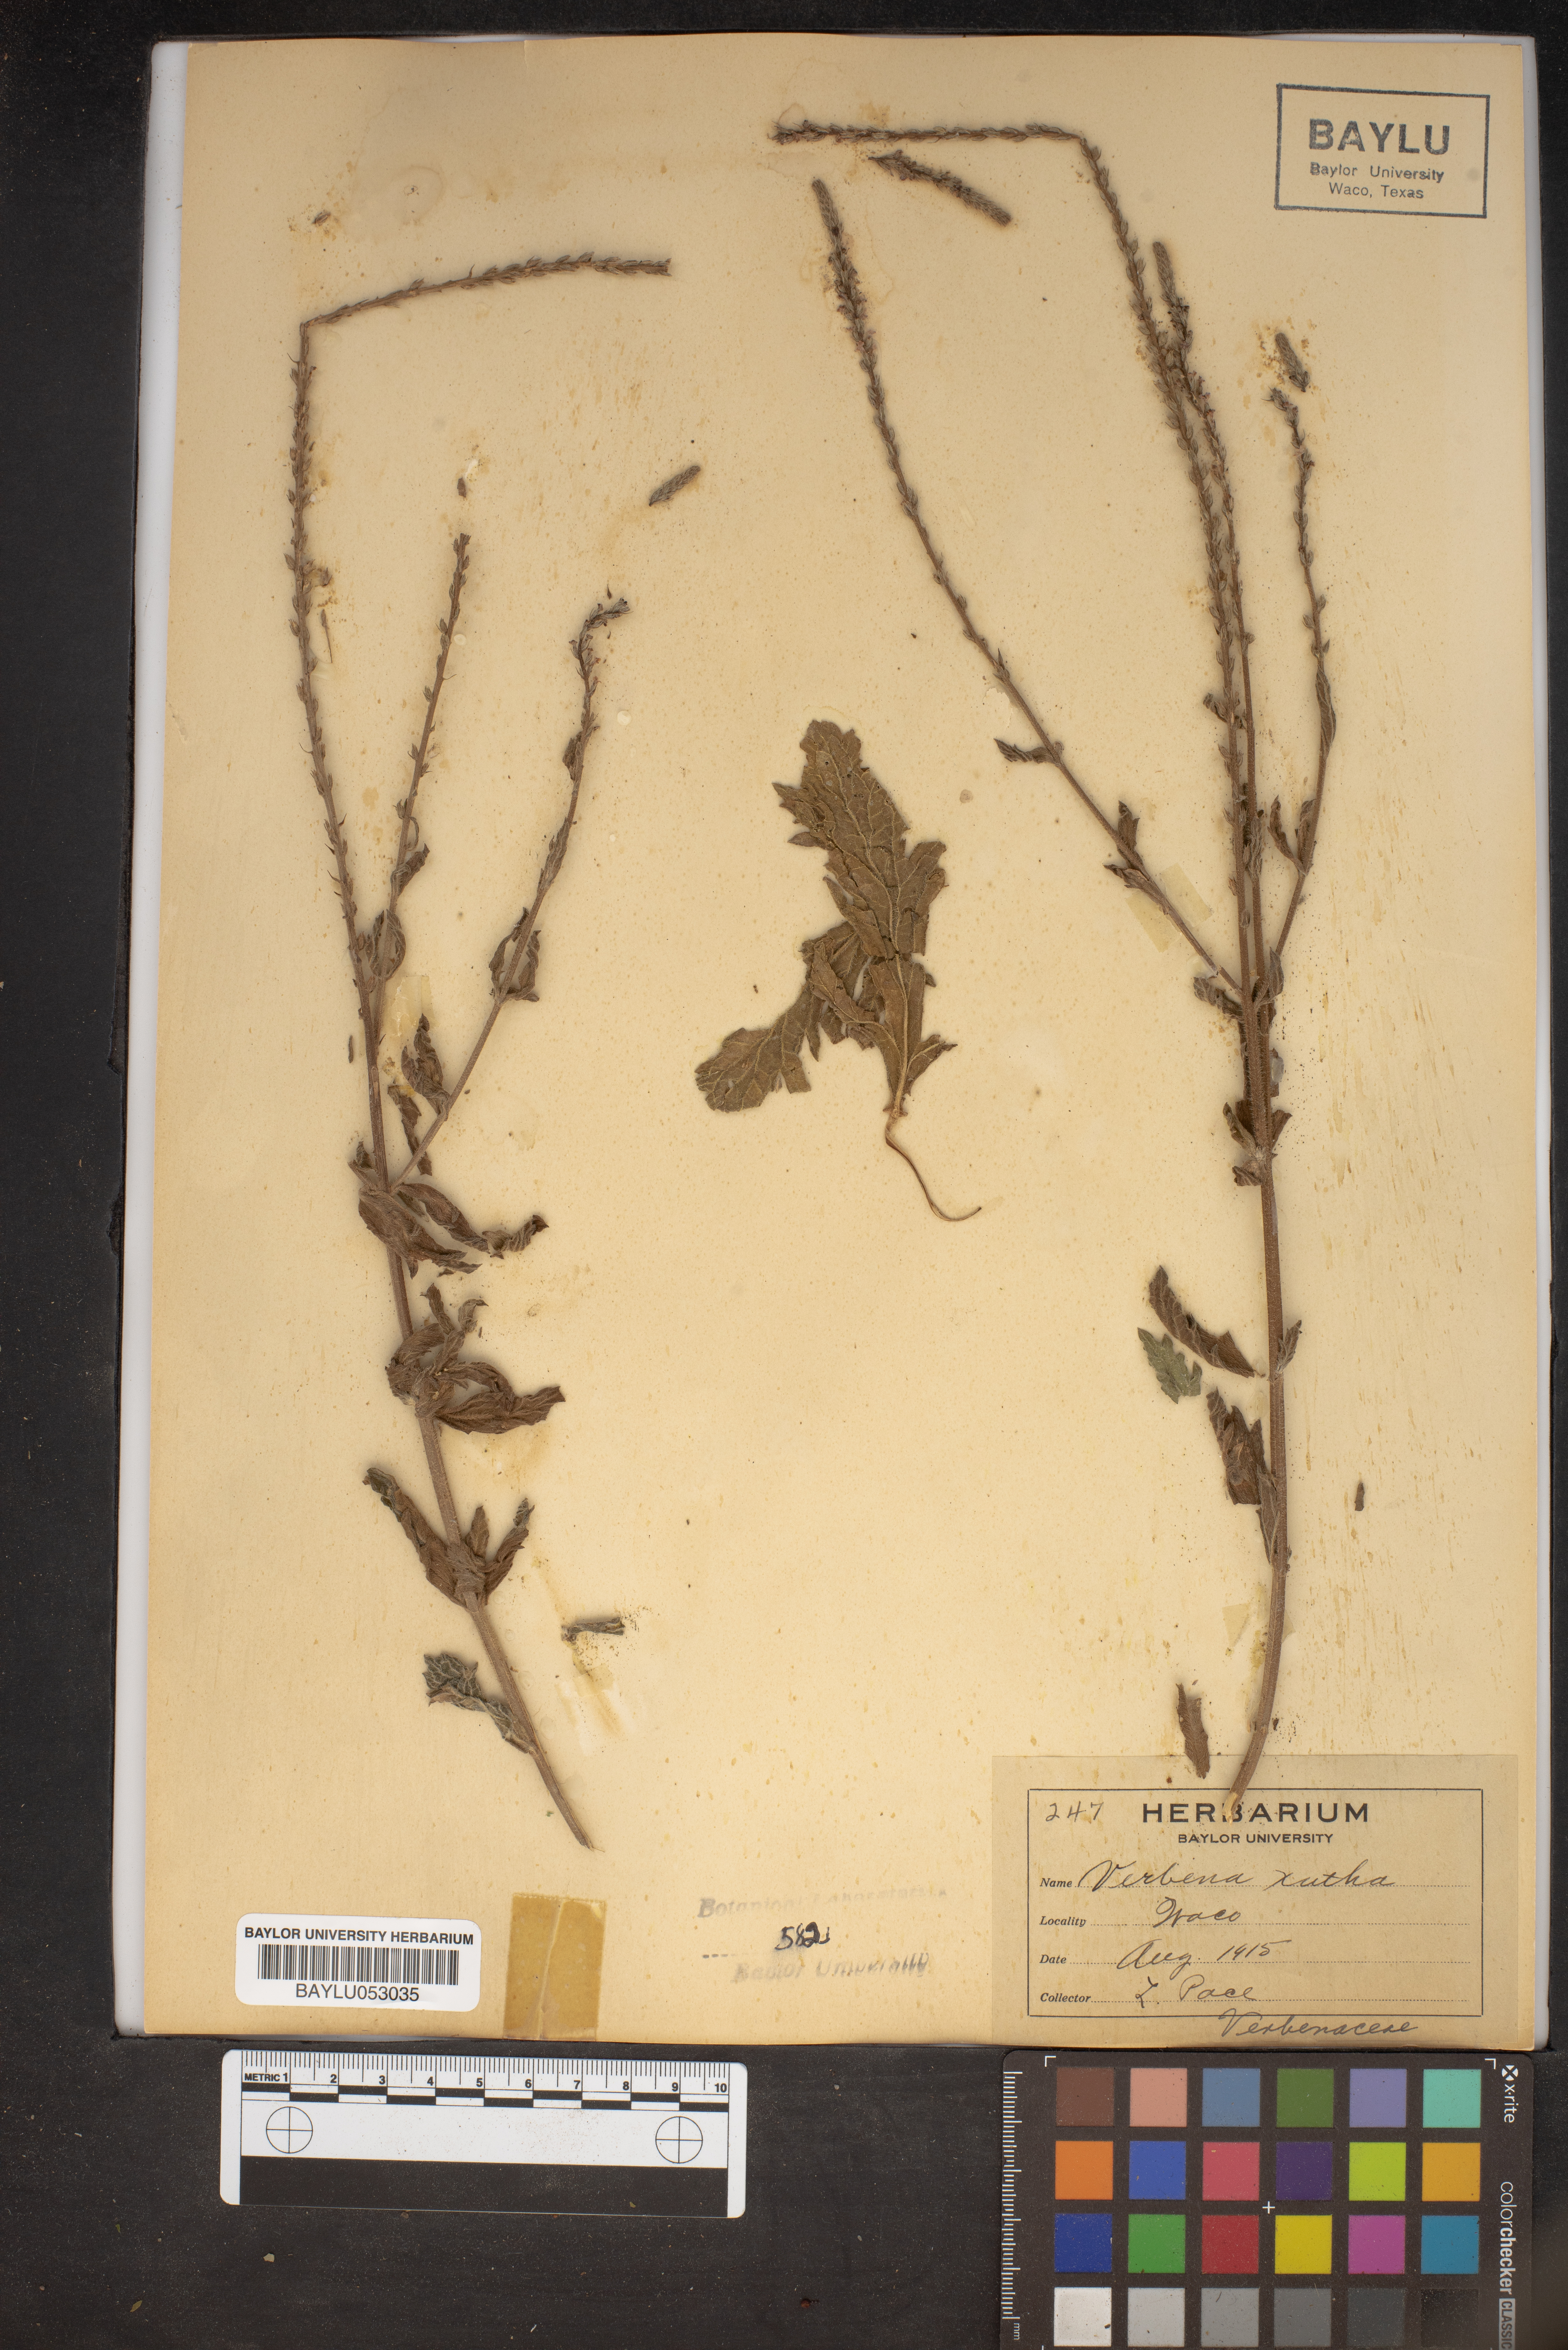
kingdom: Plantae
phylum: Tracheophyta
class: Magnoliopsida
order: Lamiales
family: Verbenaceae
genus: Verbena
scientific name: Verbena xutha
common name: Gulf vervain
